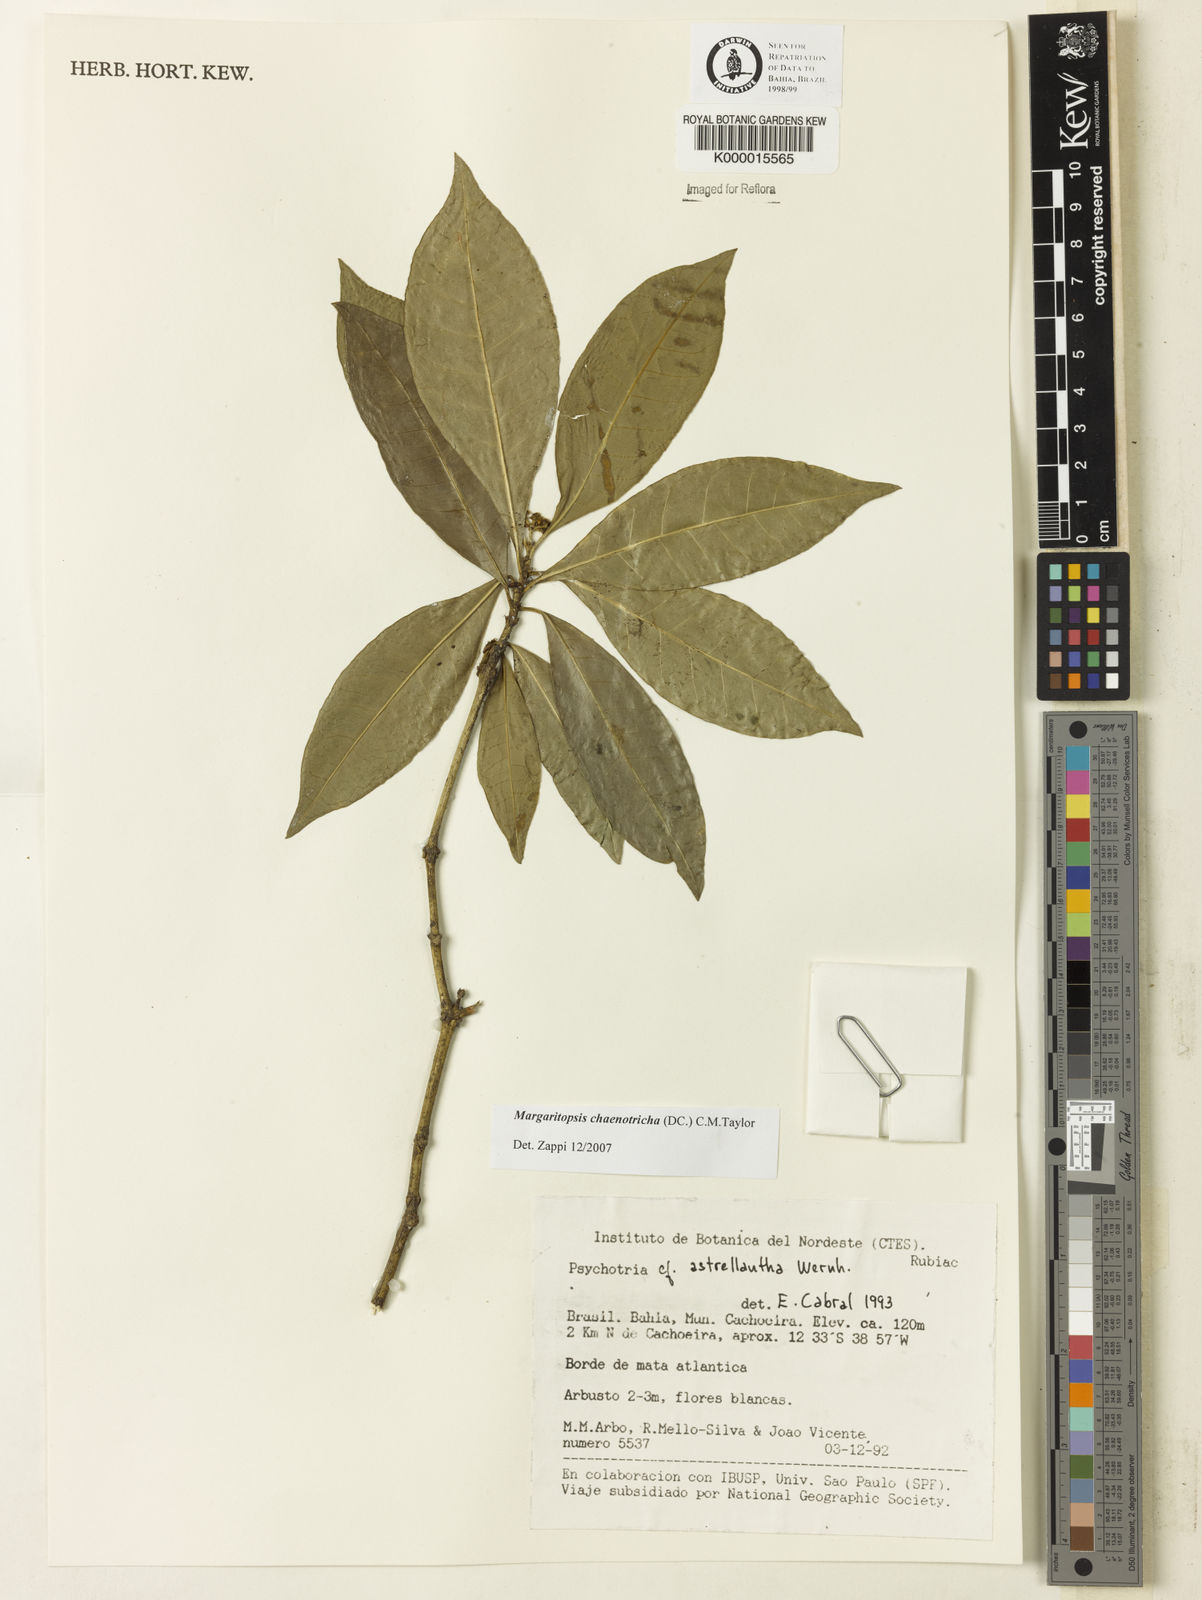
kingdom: Plantae
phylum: Tracheophyta
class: Magnoliopsida
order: Gentianales
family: Rubiaceae
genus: Eumachia
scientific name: Eumachia chaenotricha
